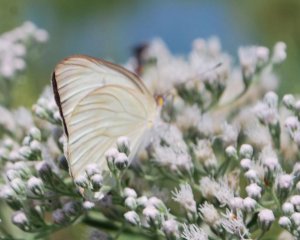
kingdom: Animalia
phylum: Arthropoda
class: Insecta
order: Lepidoptera
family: Pieridae
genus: Ascia
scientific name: Ascia monuste
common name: Great Southern White
